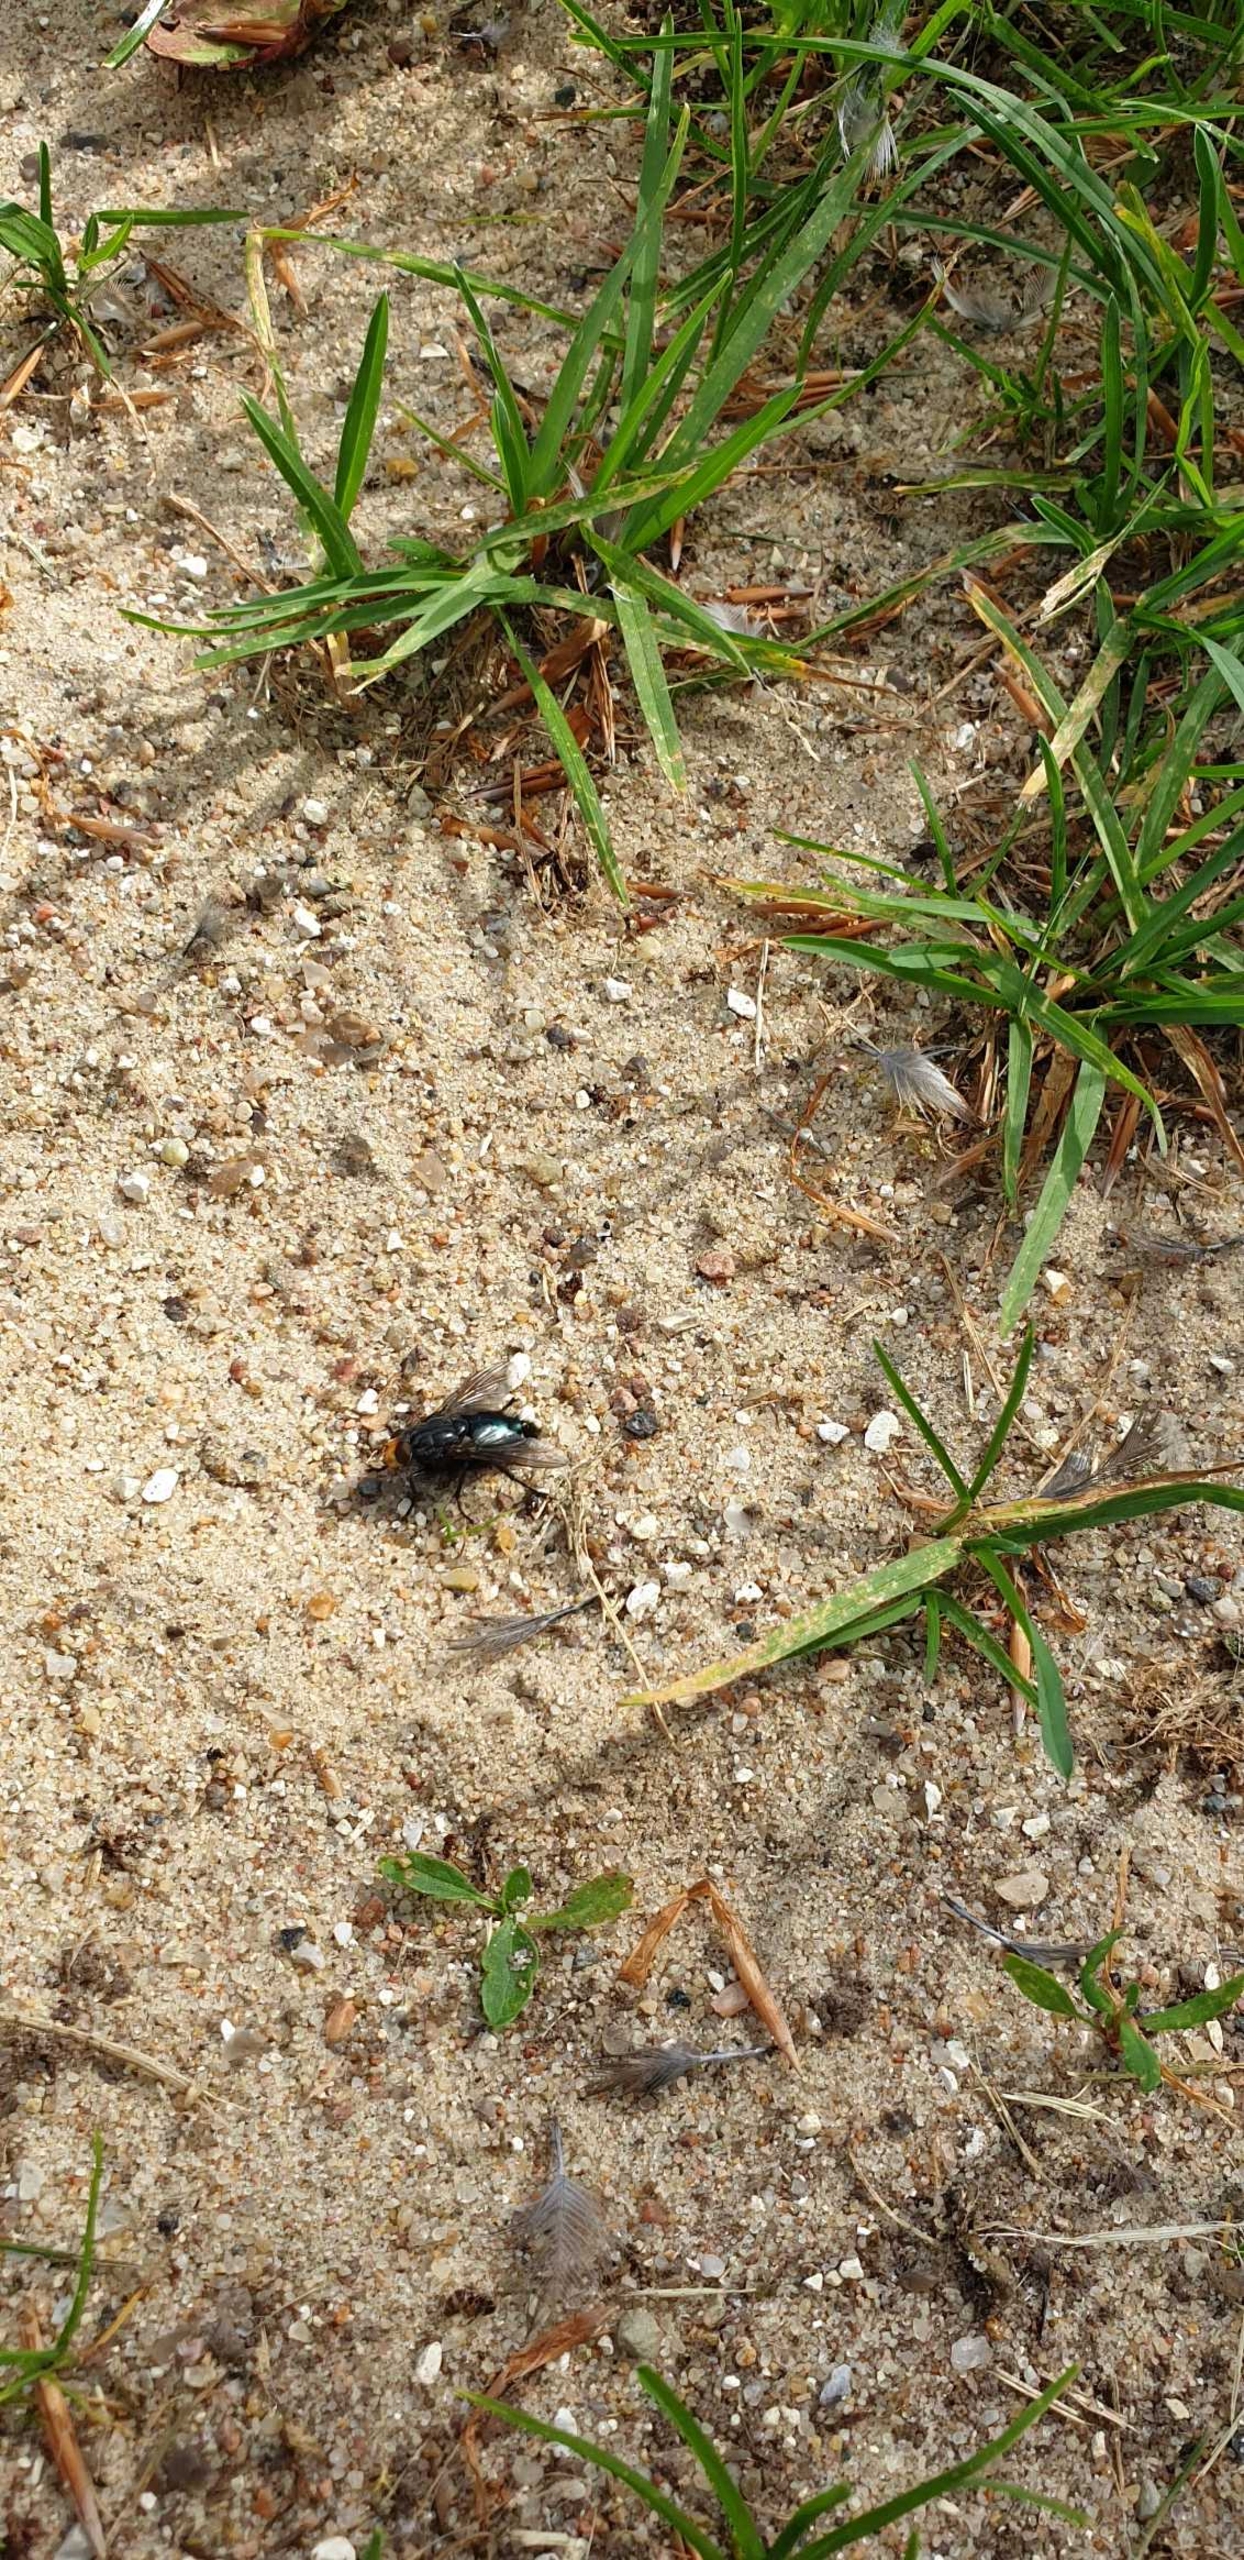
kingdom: Animalia
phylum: Arthropoda
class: Insecta
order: Diptera
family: Calliphoridae
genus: Cynomya
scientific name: Cynomya mortuorum
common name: Dødsflue
